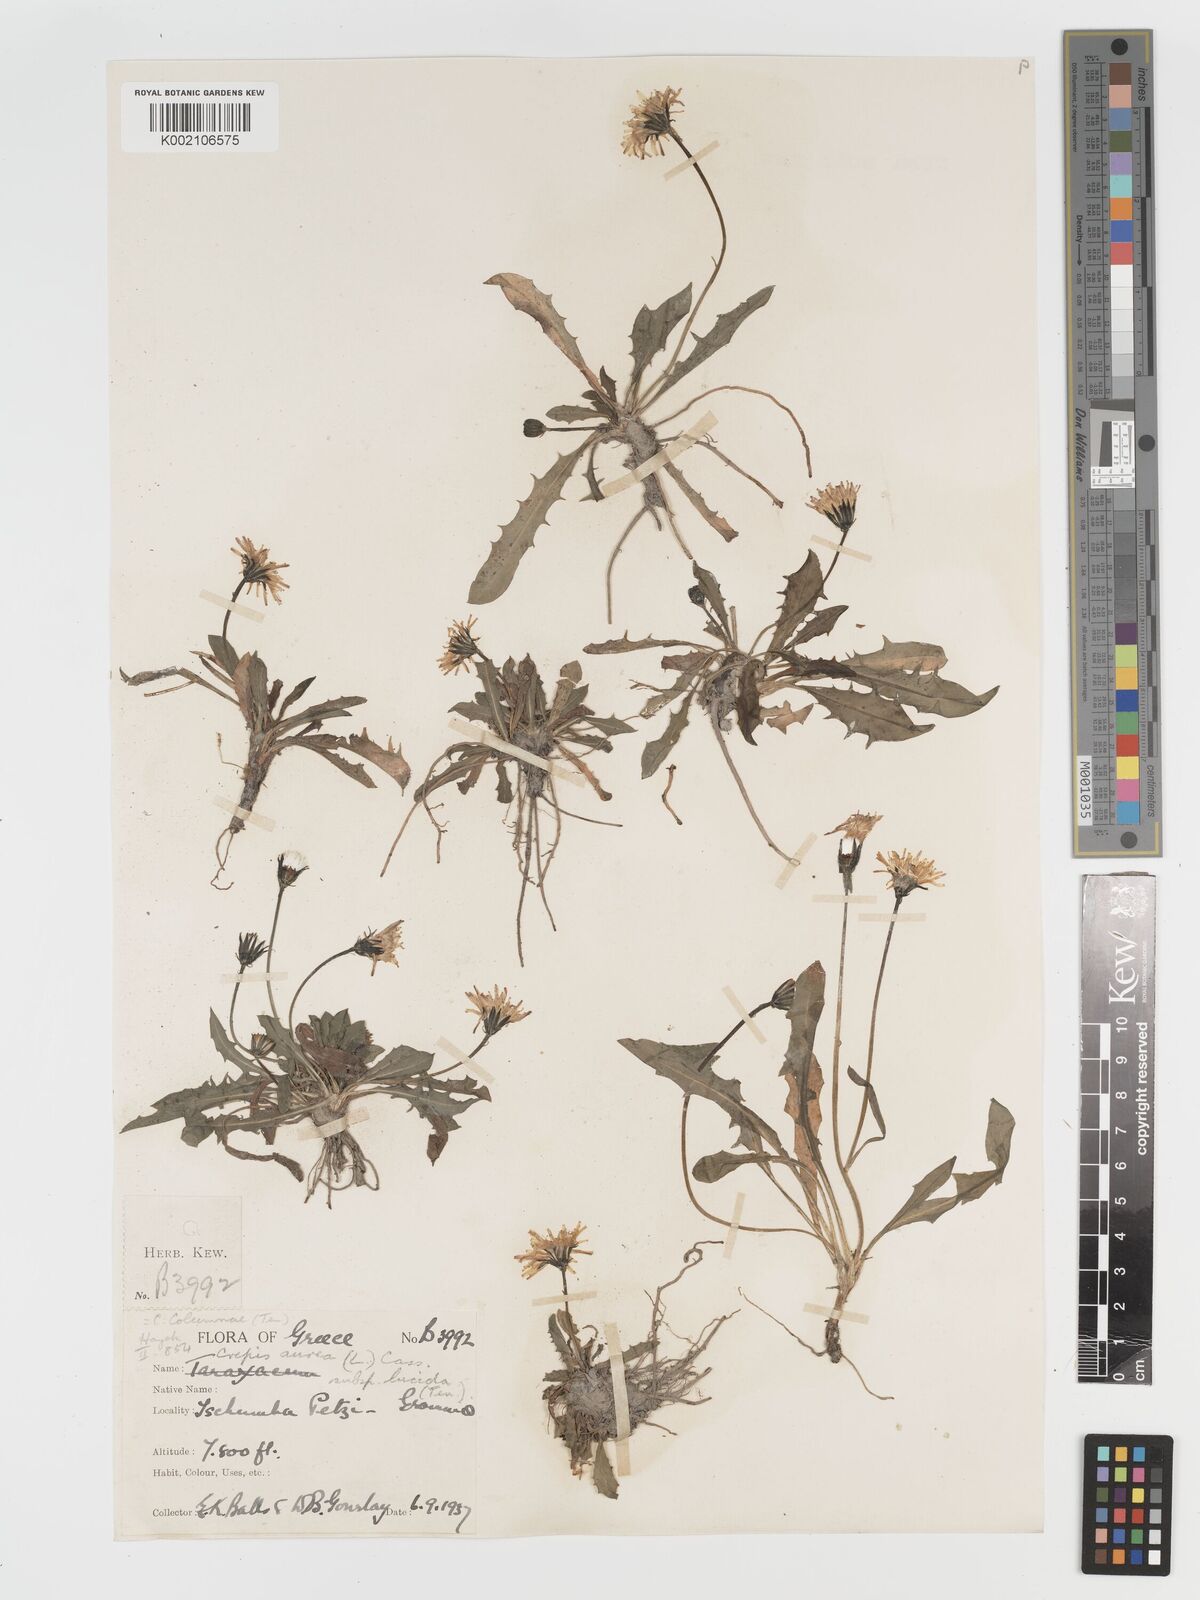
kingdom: Plantae
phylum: Tracheophyta
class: Magnoliopsida
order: Asterales
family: Asteraceae
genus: Crepis
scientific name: Crepis aurea
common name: Golden hawk's-beard
